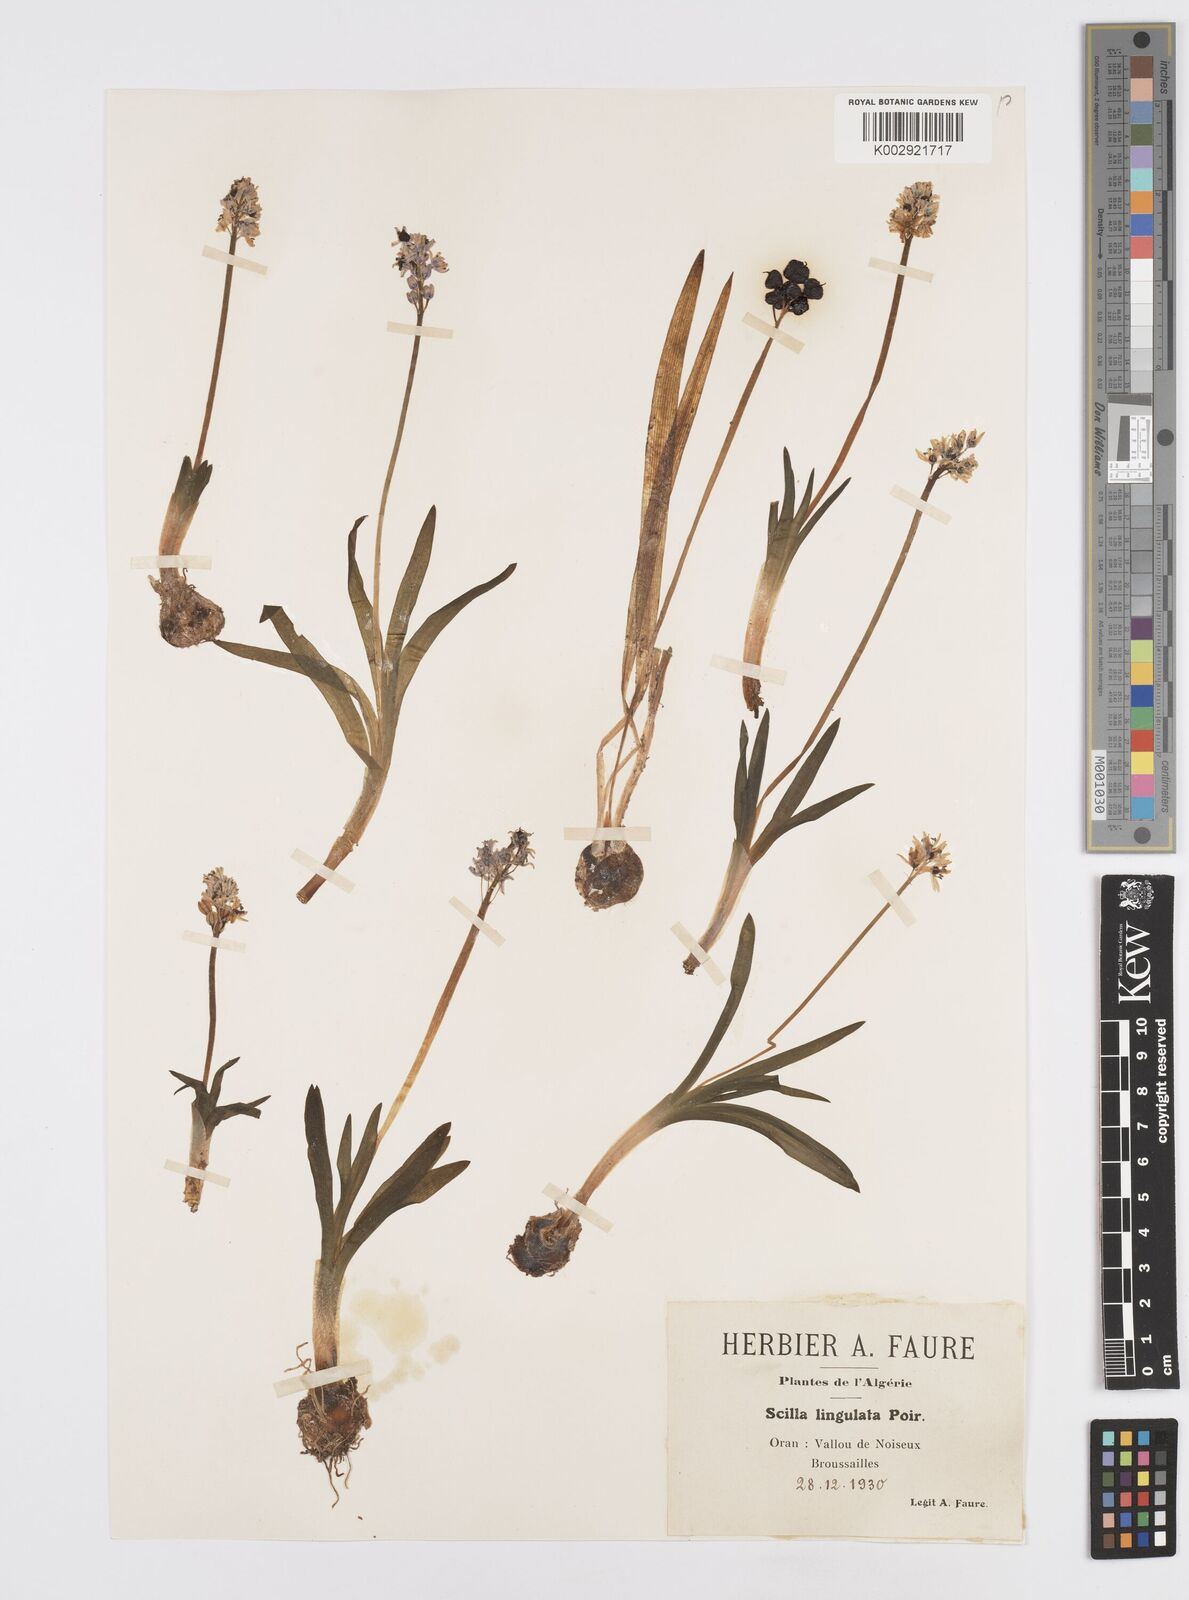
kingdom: Plantae
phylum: Tracheophyta
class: Liliopsida
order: Asparagales
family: Asparagaceae
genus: Hyacinthoides
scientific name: Hyacinthoides lingulata
